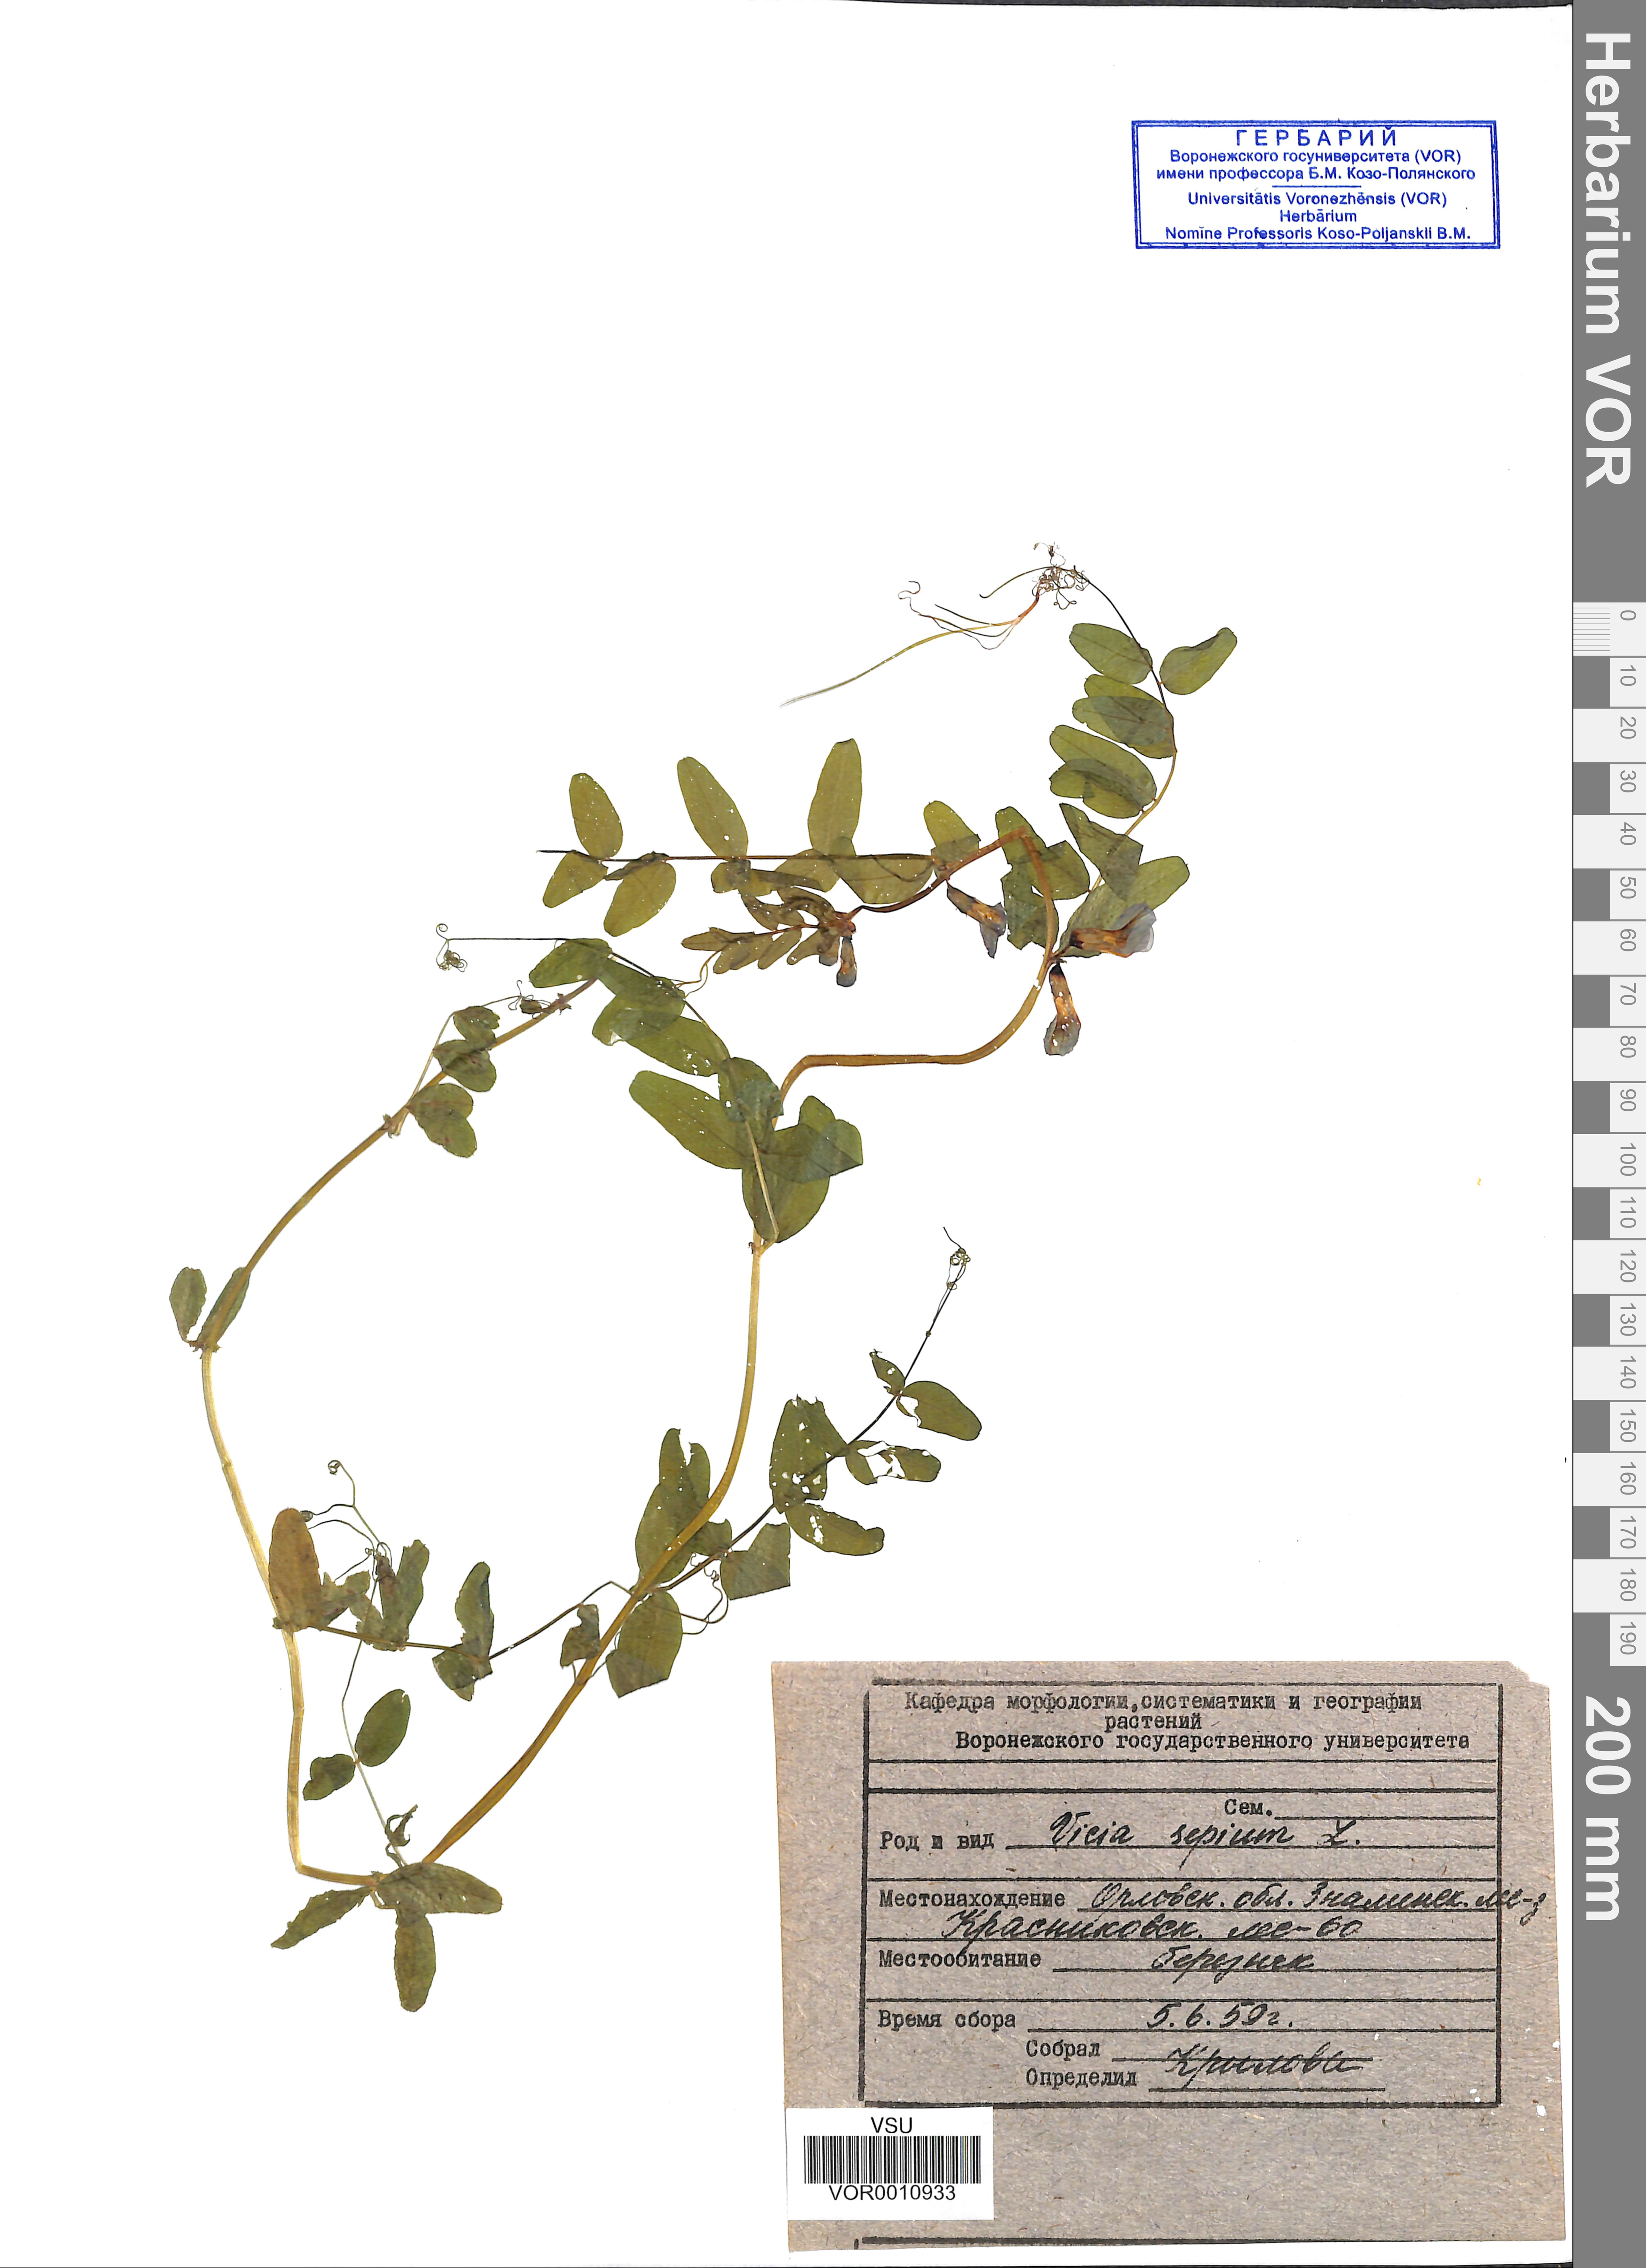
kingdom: Plantae
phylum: Tracheophyta
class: Magnoliopsida
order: Fabales
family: Fabaceae
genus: Vicia
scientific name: Vicia sepium
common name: Bush vetch
